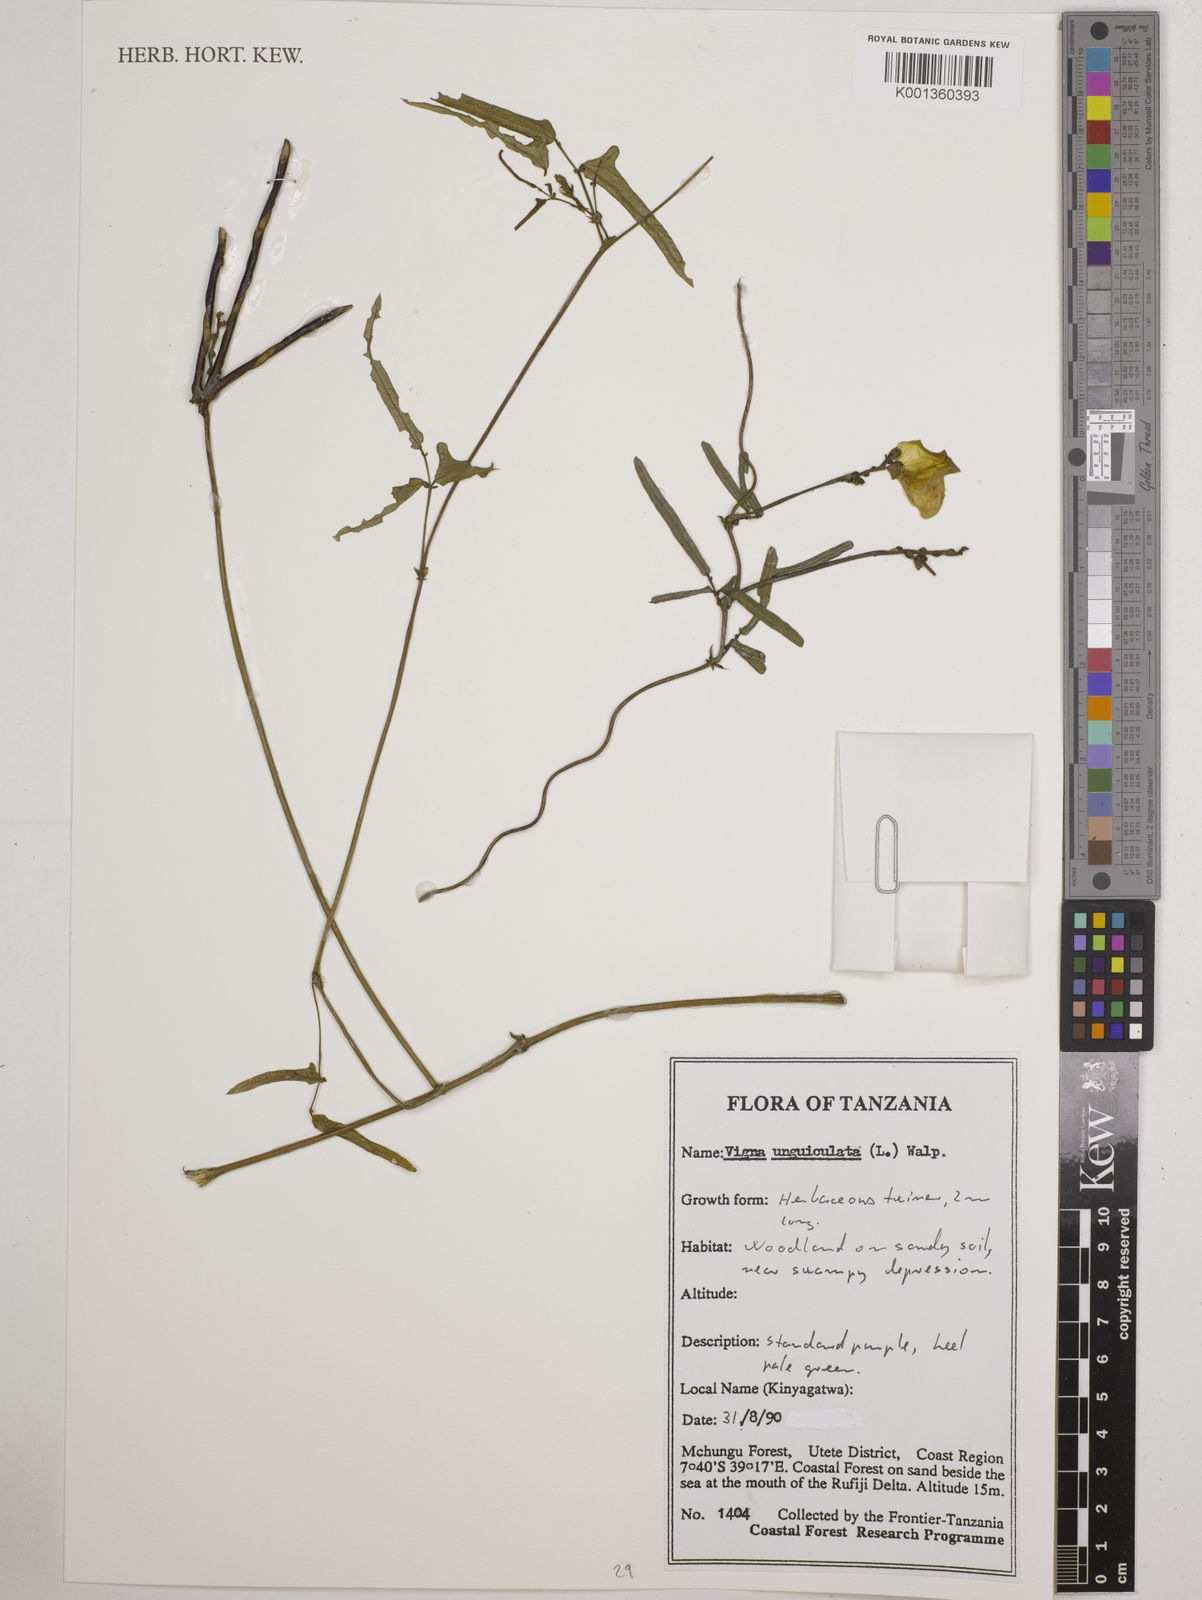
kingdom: Plantae
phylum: Tracheophyta
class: Magnoliopsida
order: Fabales
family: Fabaceae
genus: Vigna
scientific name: Vigna unguiculata
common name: Cowpea
